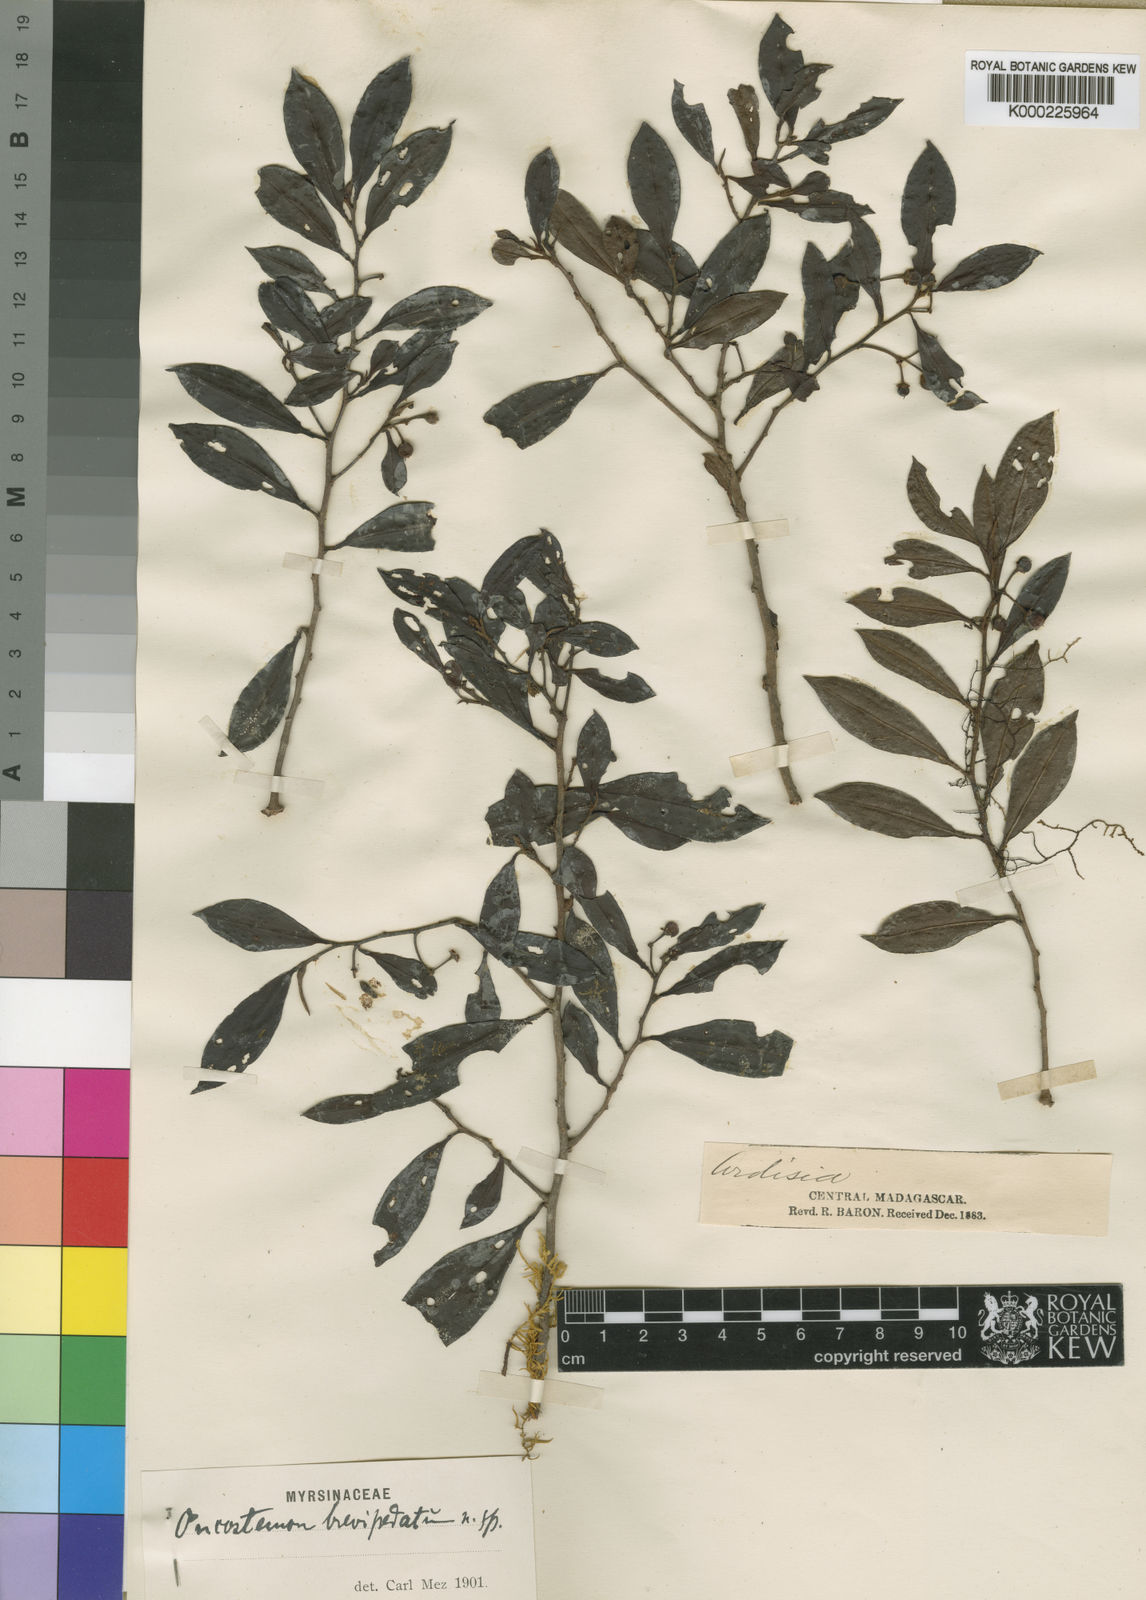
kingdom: Plantae
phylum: Tracheophyta
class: Magnoliopsida
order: Ericales
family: Primulaceae
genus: Oncostemum
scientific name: Oncostemum brevipedatum
